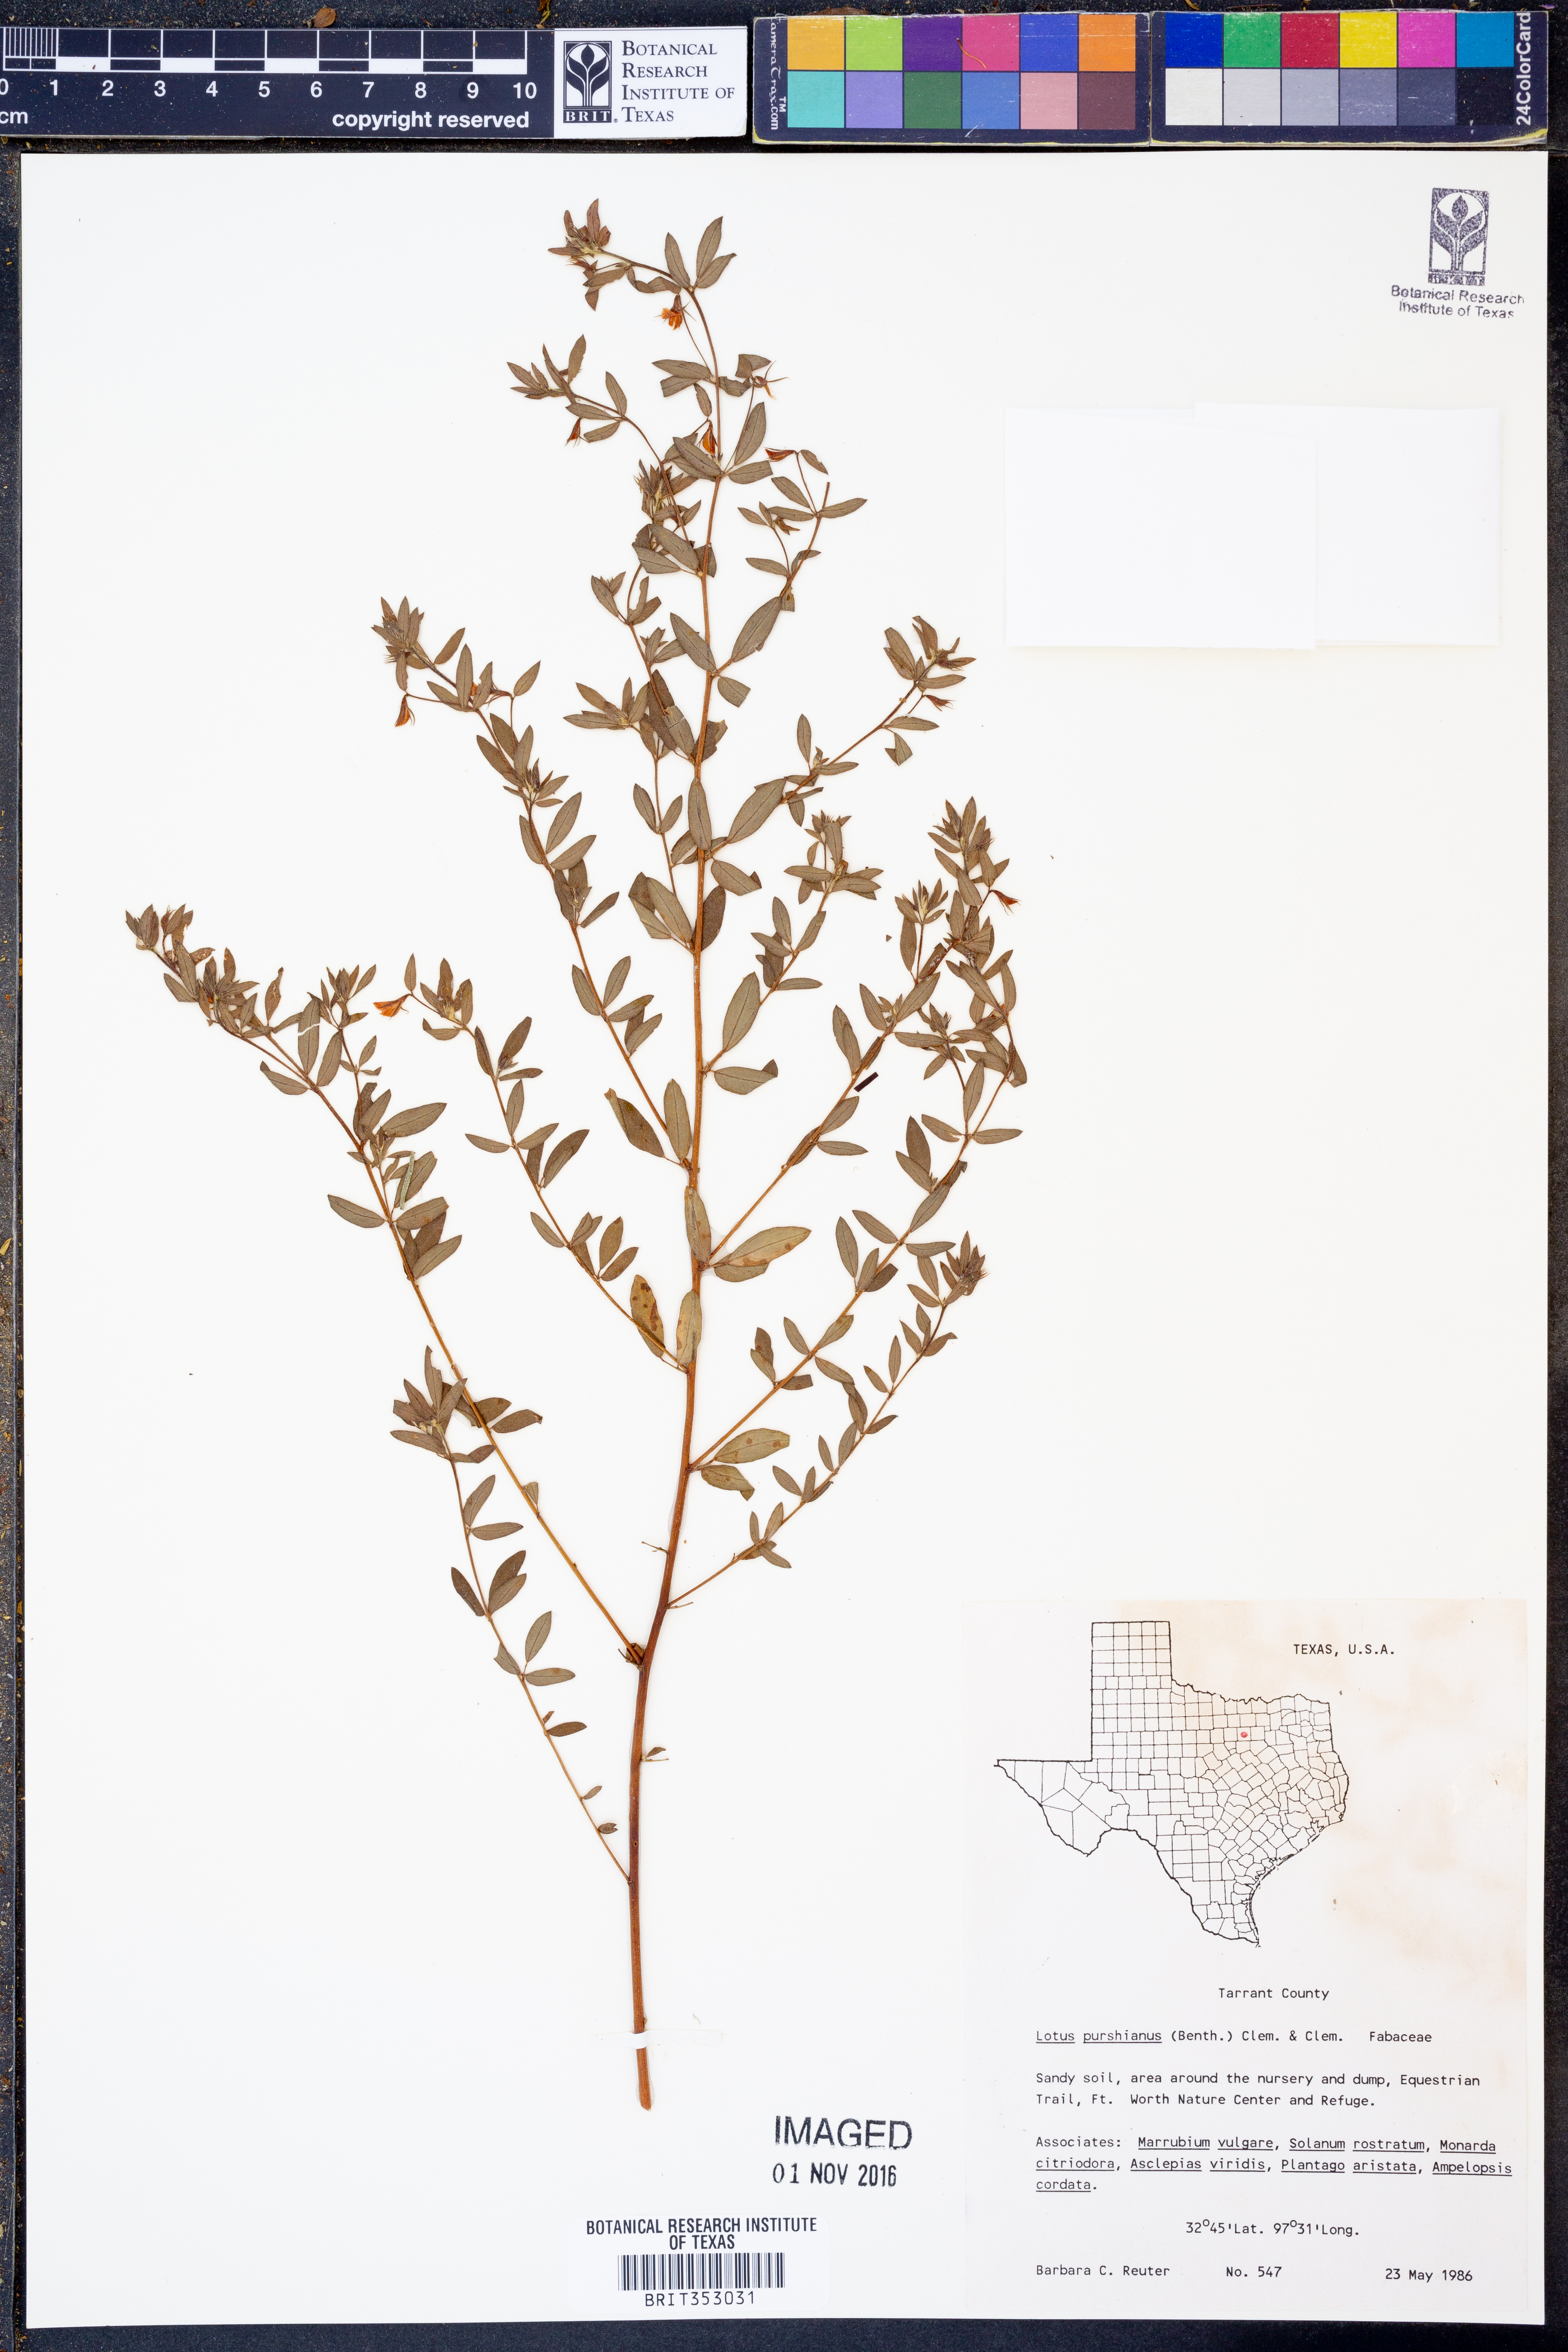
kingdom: Plantae
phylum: Tracheophyta
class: Magnoliopsida
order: Fabales
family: Fabaceae
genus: Acmispon
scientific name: Acmispon americanus
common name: American bird's-foot trefoil
